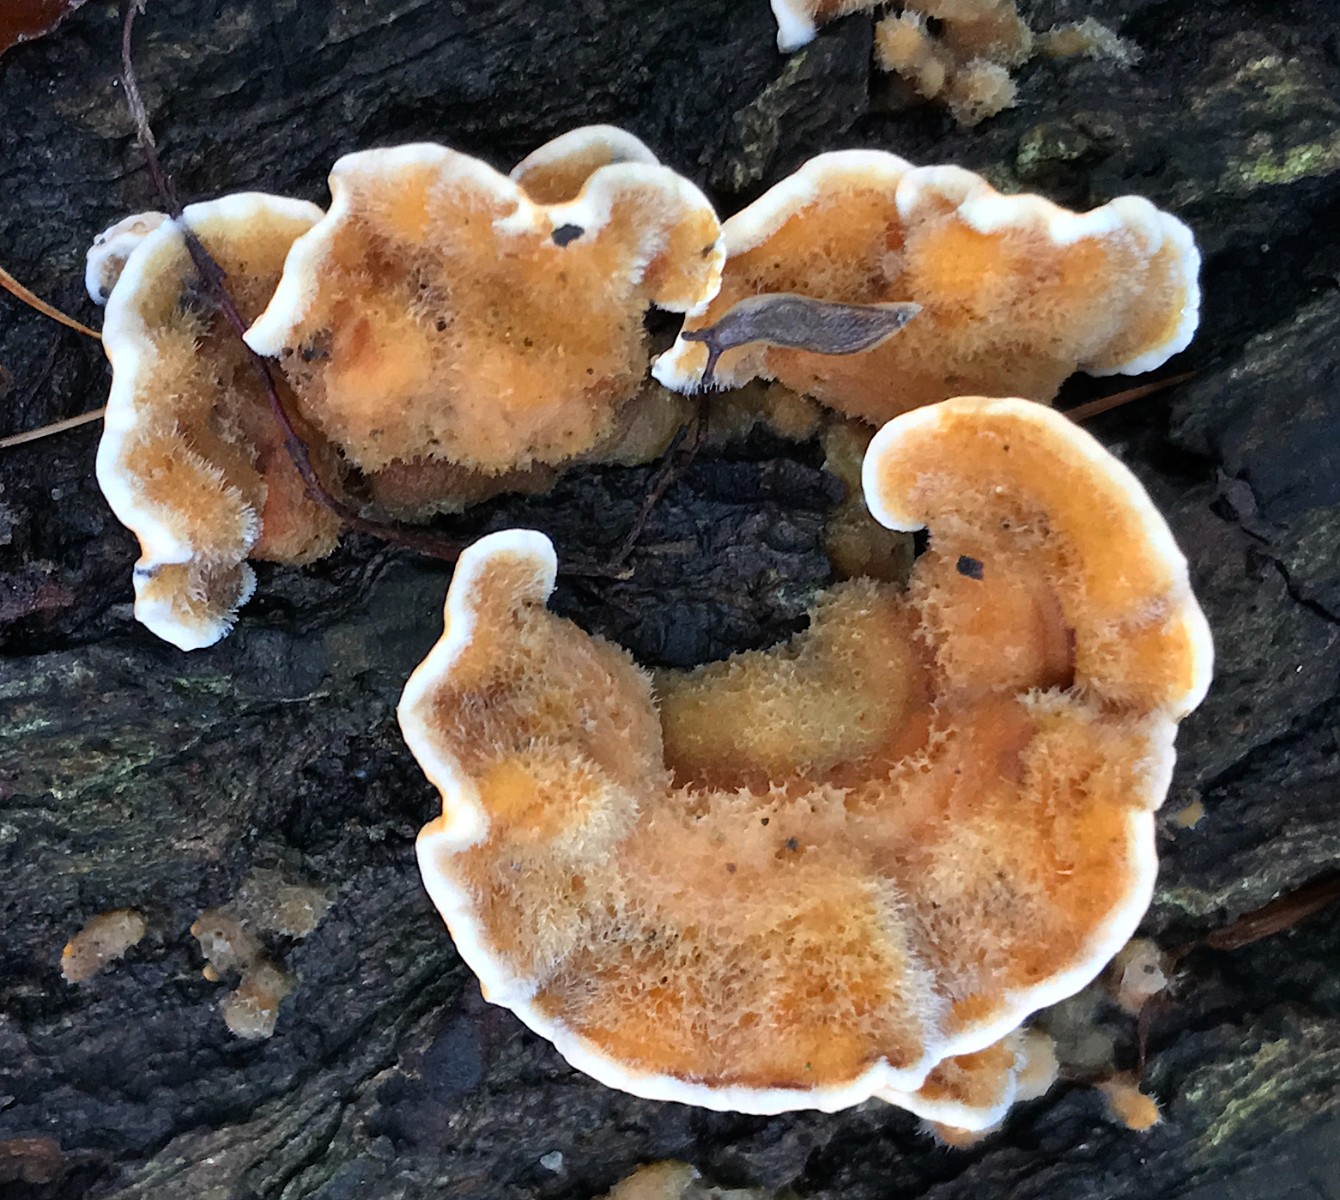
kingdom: Fungi
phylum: Basidiomycota
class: Agaricomycetes
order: Russulales
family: Stereaceae
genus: Stereum
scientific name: Stereum hirsutum
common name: håret lædersvamp
